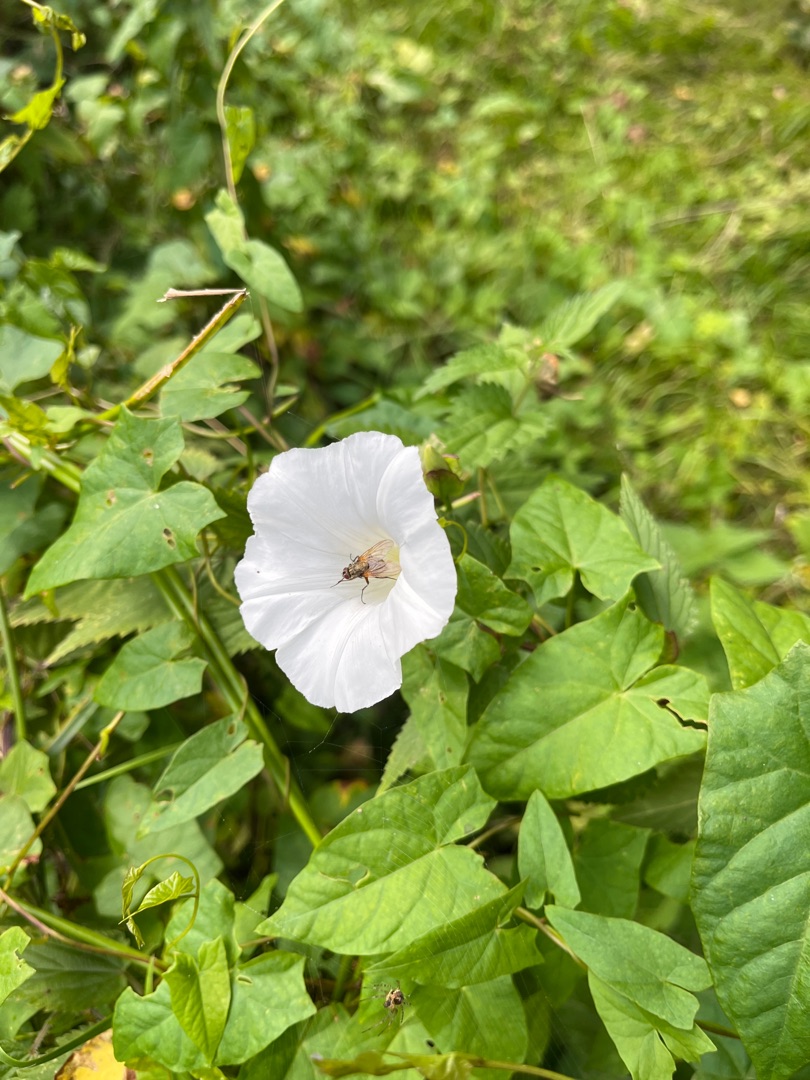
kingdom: Plantae
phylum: Tracheophyta
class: Magnoliopsida
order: Solanales
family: Convolvulaceae
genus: Calystegia
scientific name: Calystegia sepium
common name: Gærde-snerle
